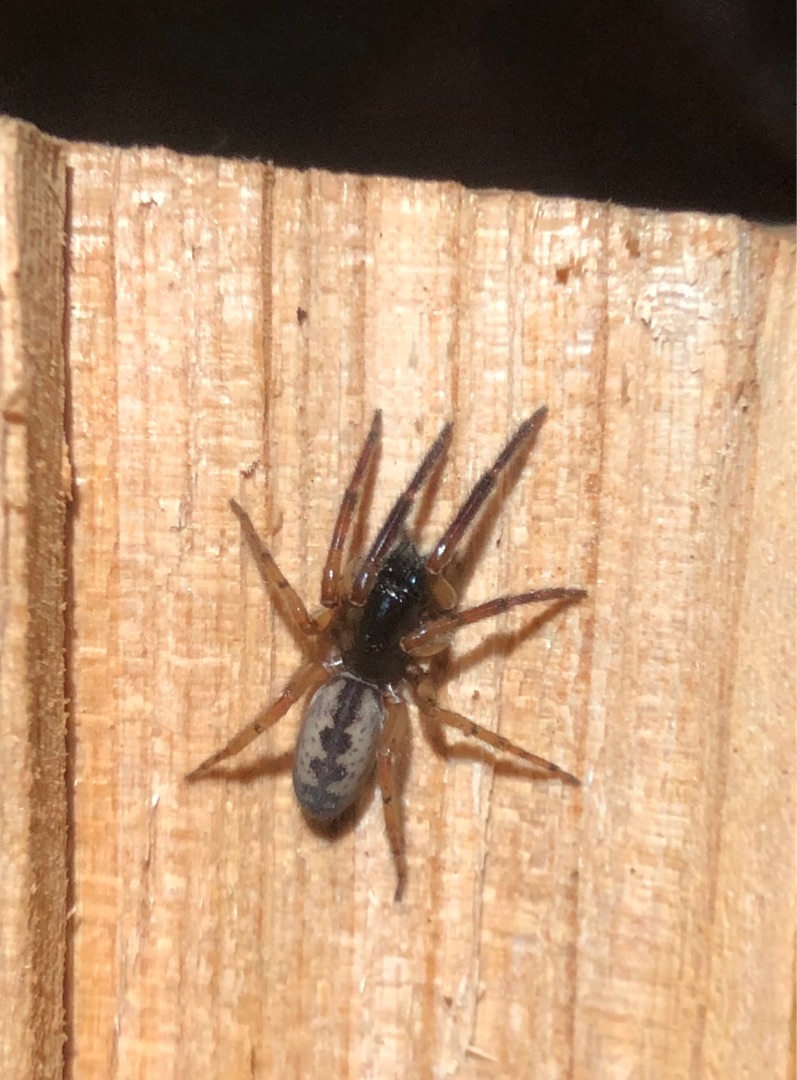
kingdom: Animalia
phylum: Arthropoda
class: Arachnida
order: Araneae
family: Segestriidae
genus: Segestria
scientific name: Segestria senoculata
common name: Snubletrådsedderkop
